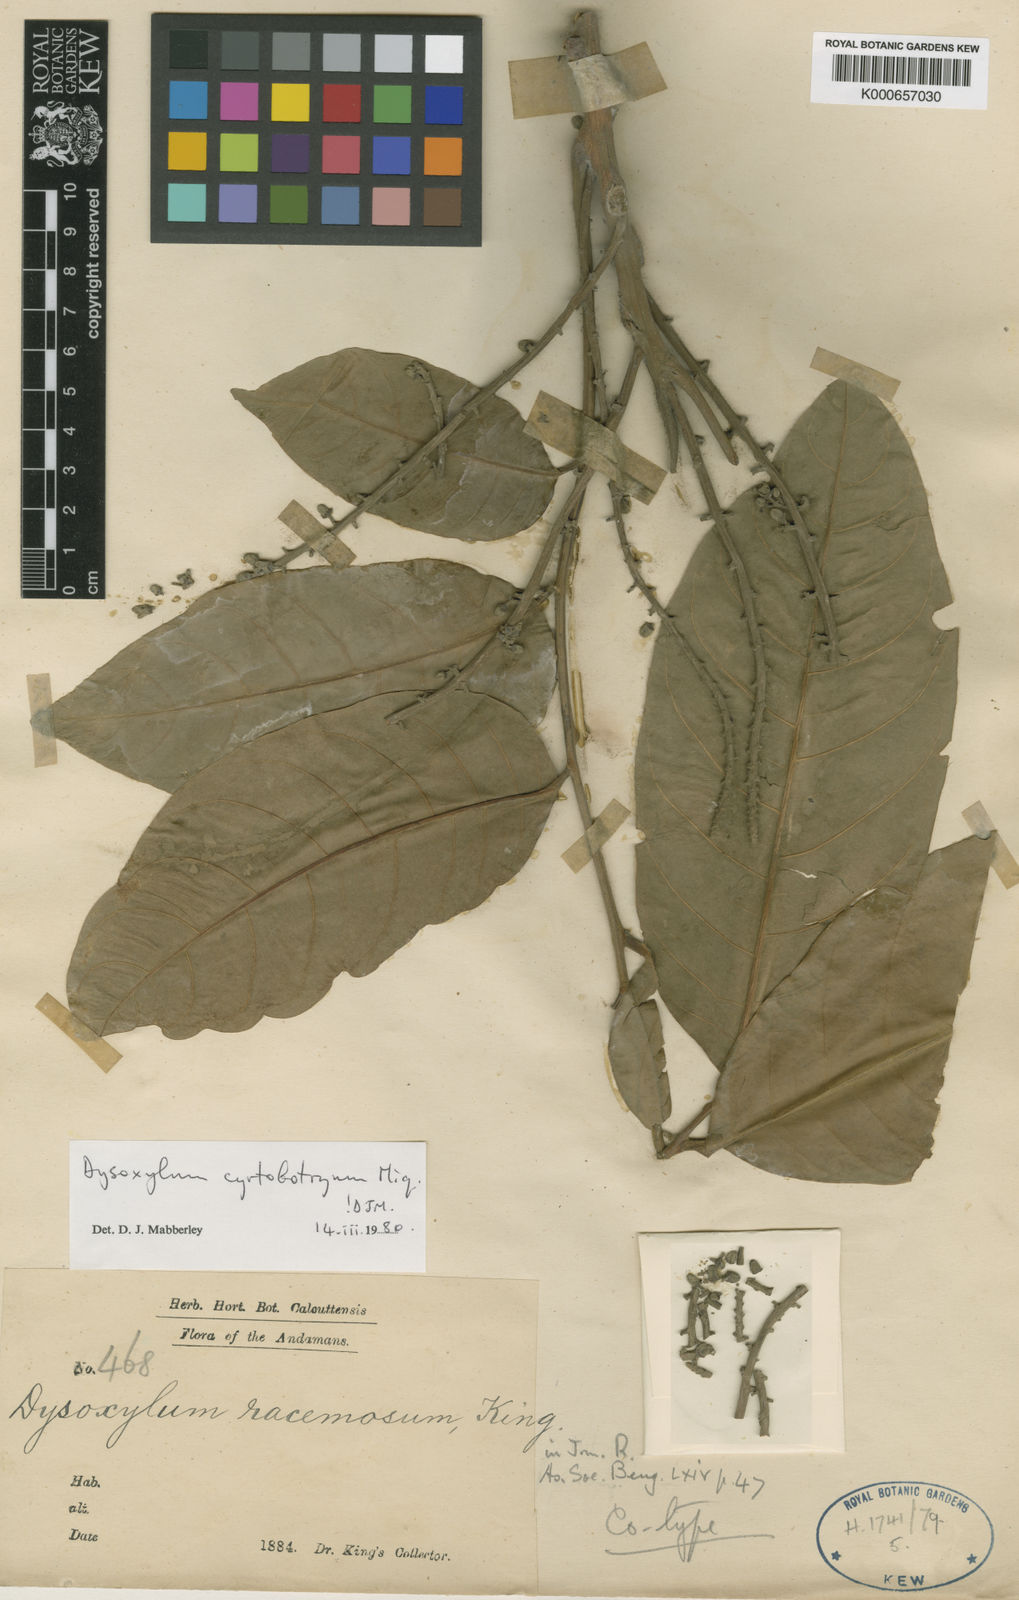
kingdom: Plantae
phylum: Tracheophyta
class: Magnoliopsida
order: Sapindales
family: Meliaceae
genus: Dysoxylum
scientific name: Dysoxylum cyrtobotryum
